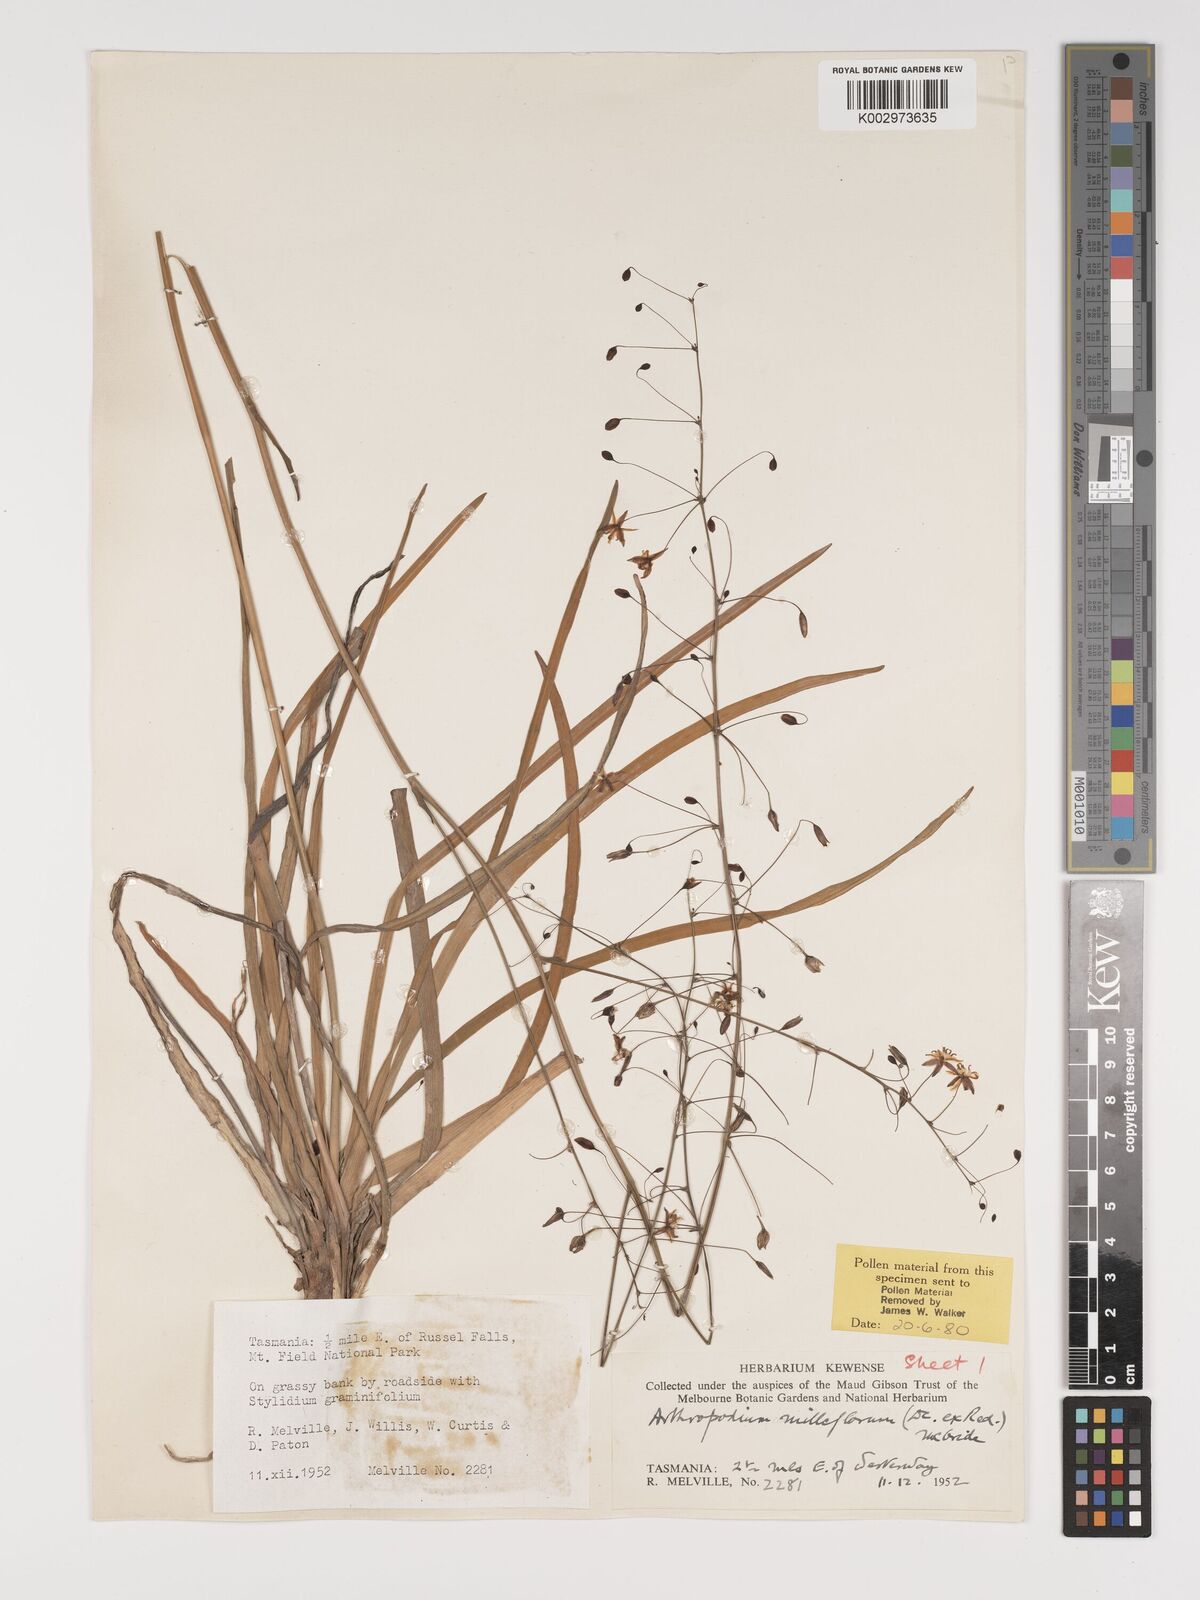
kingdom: Plantae
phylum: Tracheophyta
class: Liliopsida
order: Asparagales
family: Asparagaceae
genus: Arthropodium
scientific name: Arthropodium milleflorum
